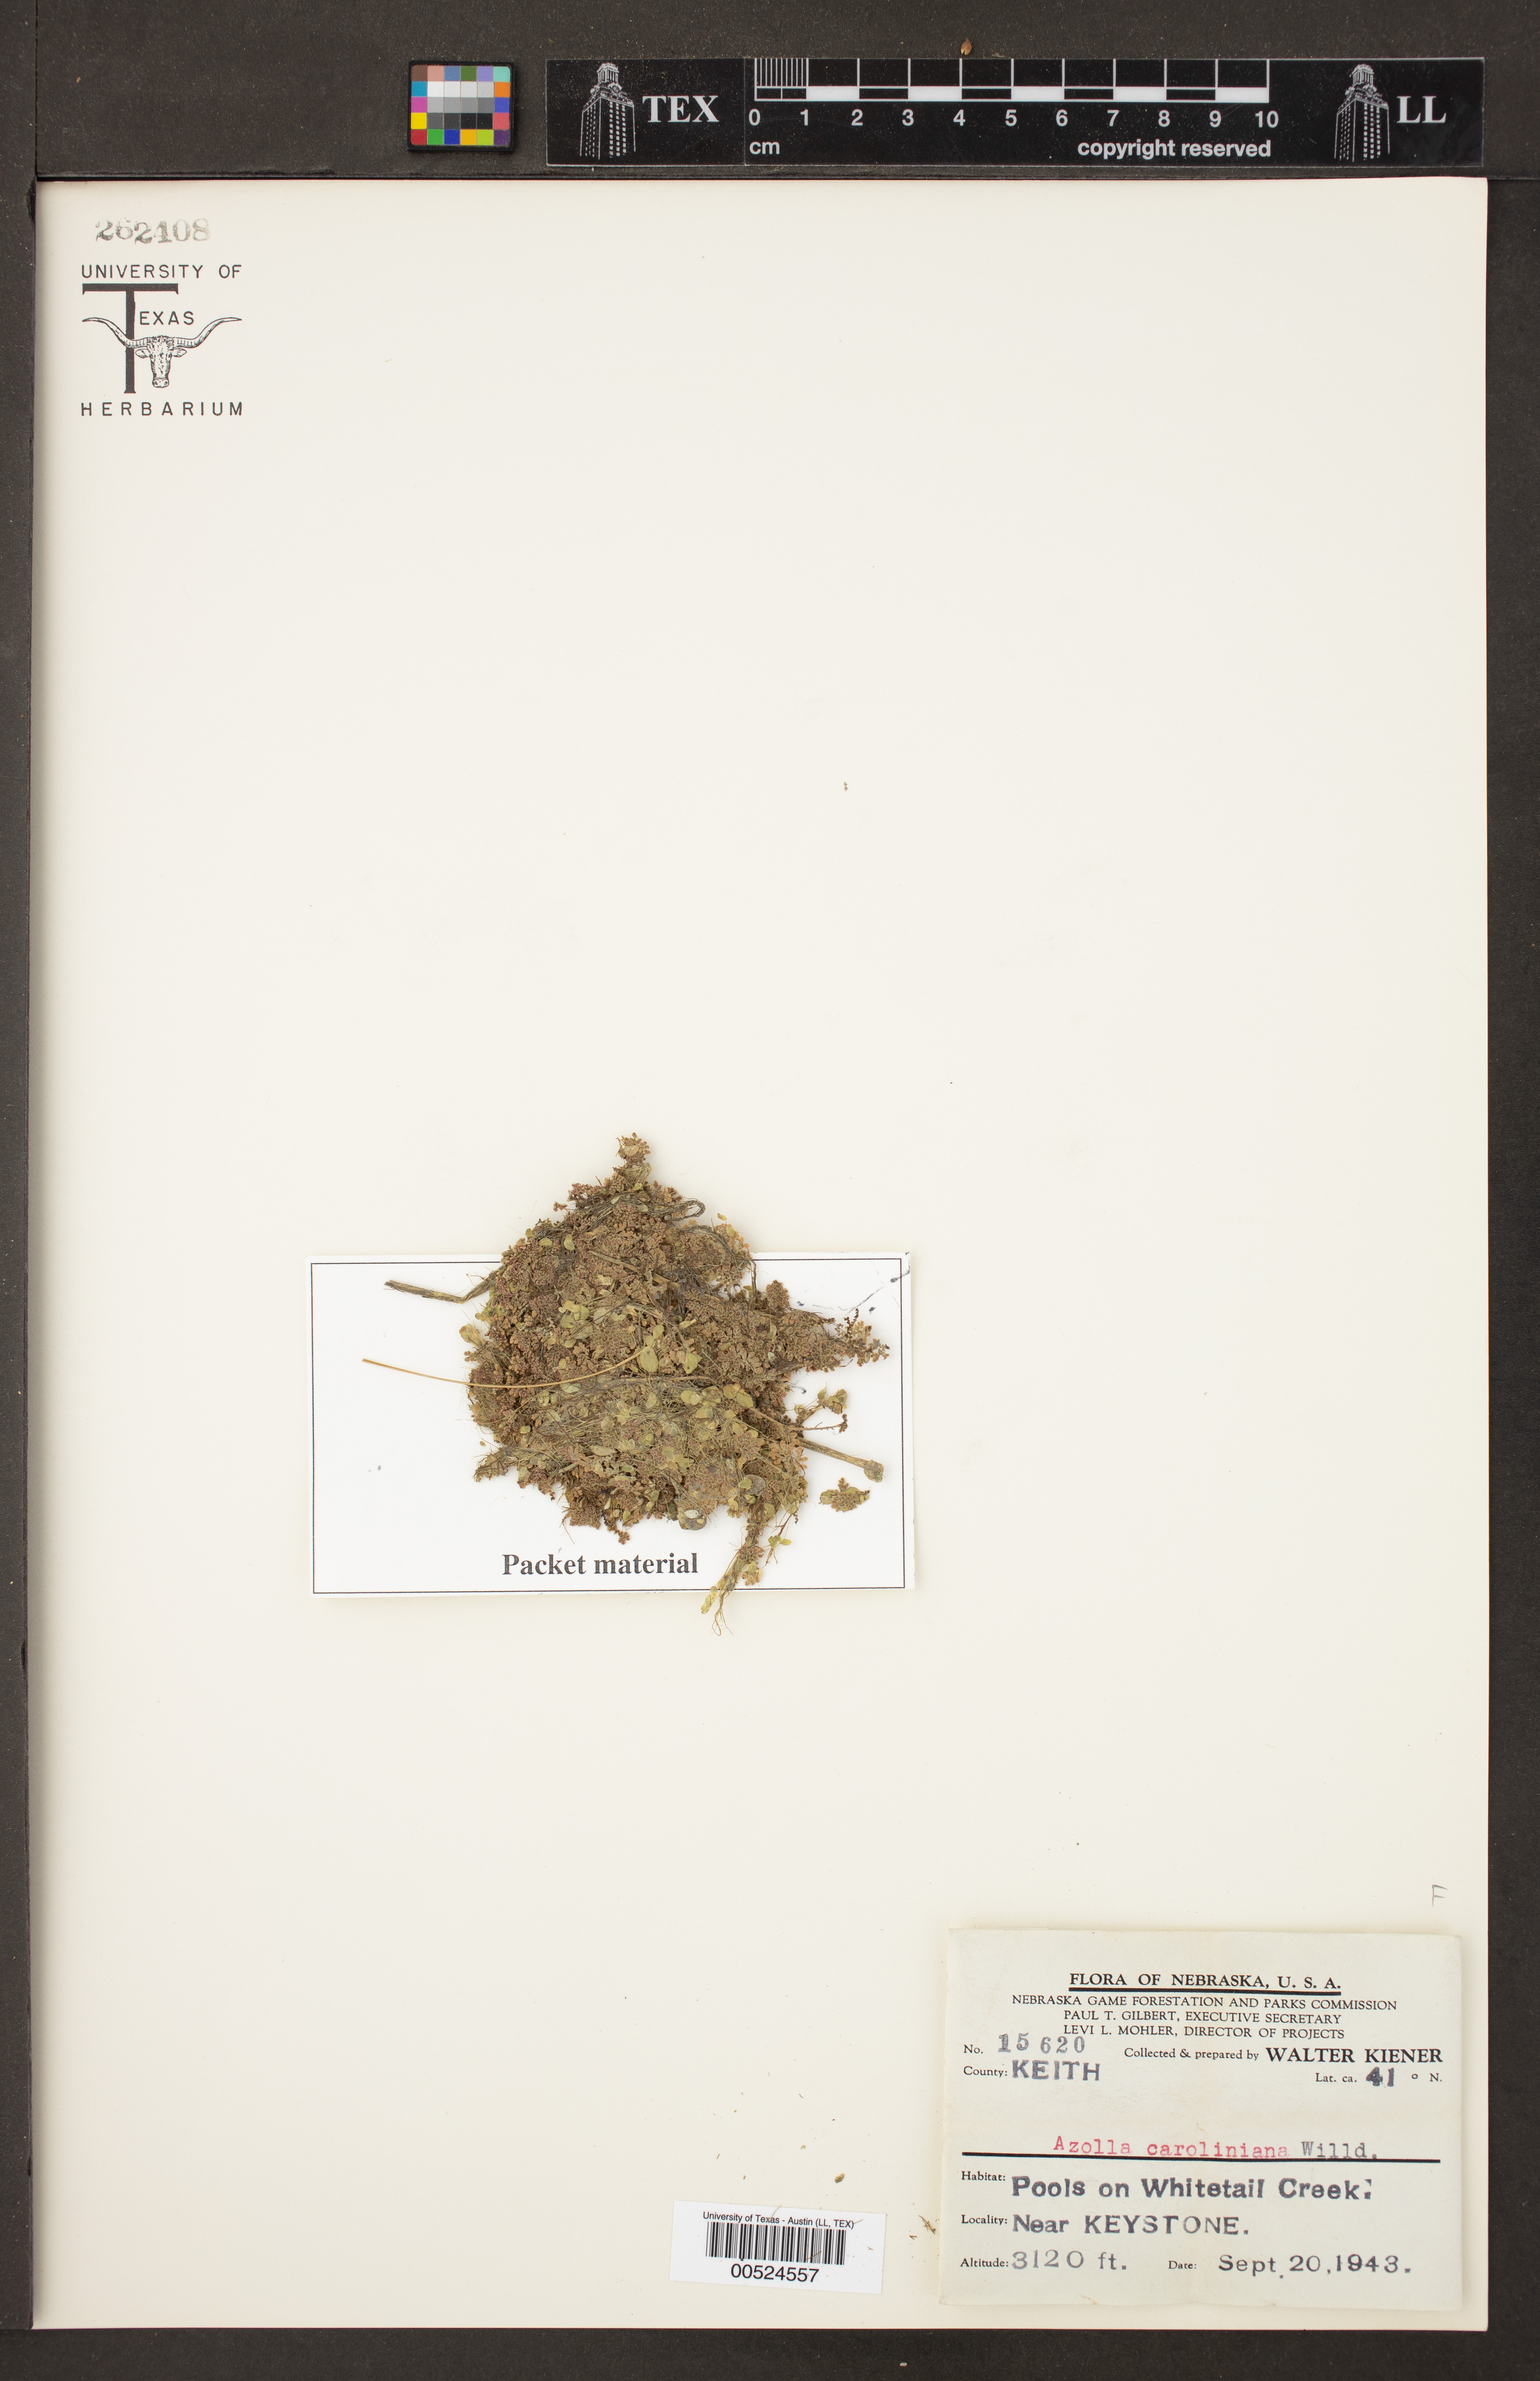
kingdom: Plantae
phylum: Tracheophyta
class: Polypodiopsida
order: Salviniales
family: Salviniaceae
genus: Azolla
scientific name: Azolla caroliniana
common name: Carolina mosquitofern
